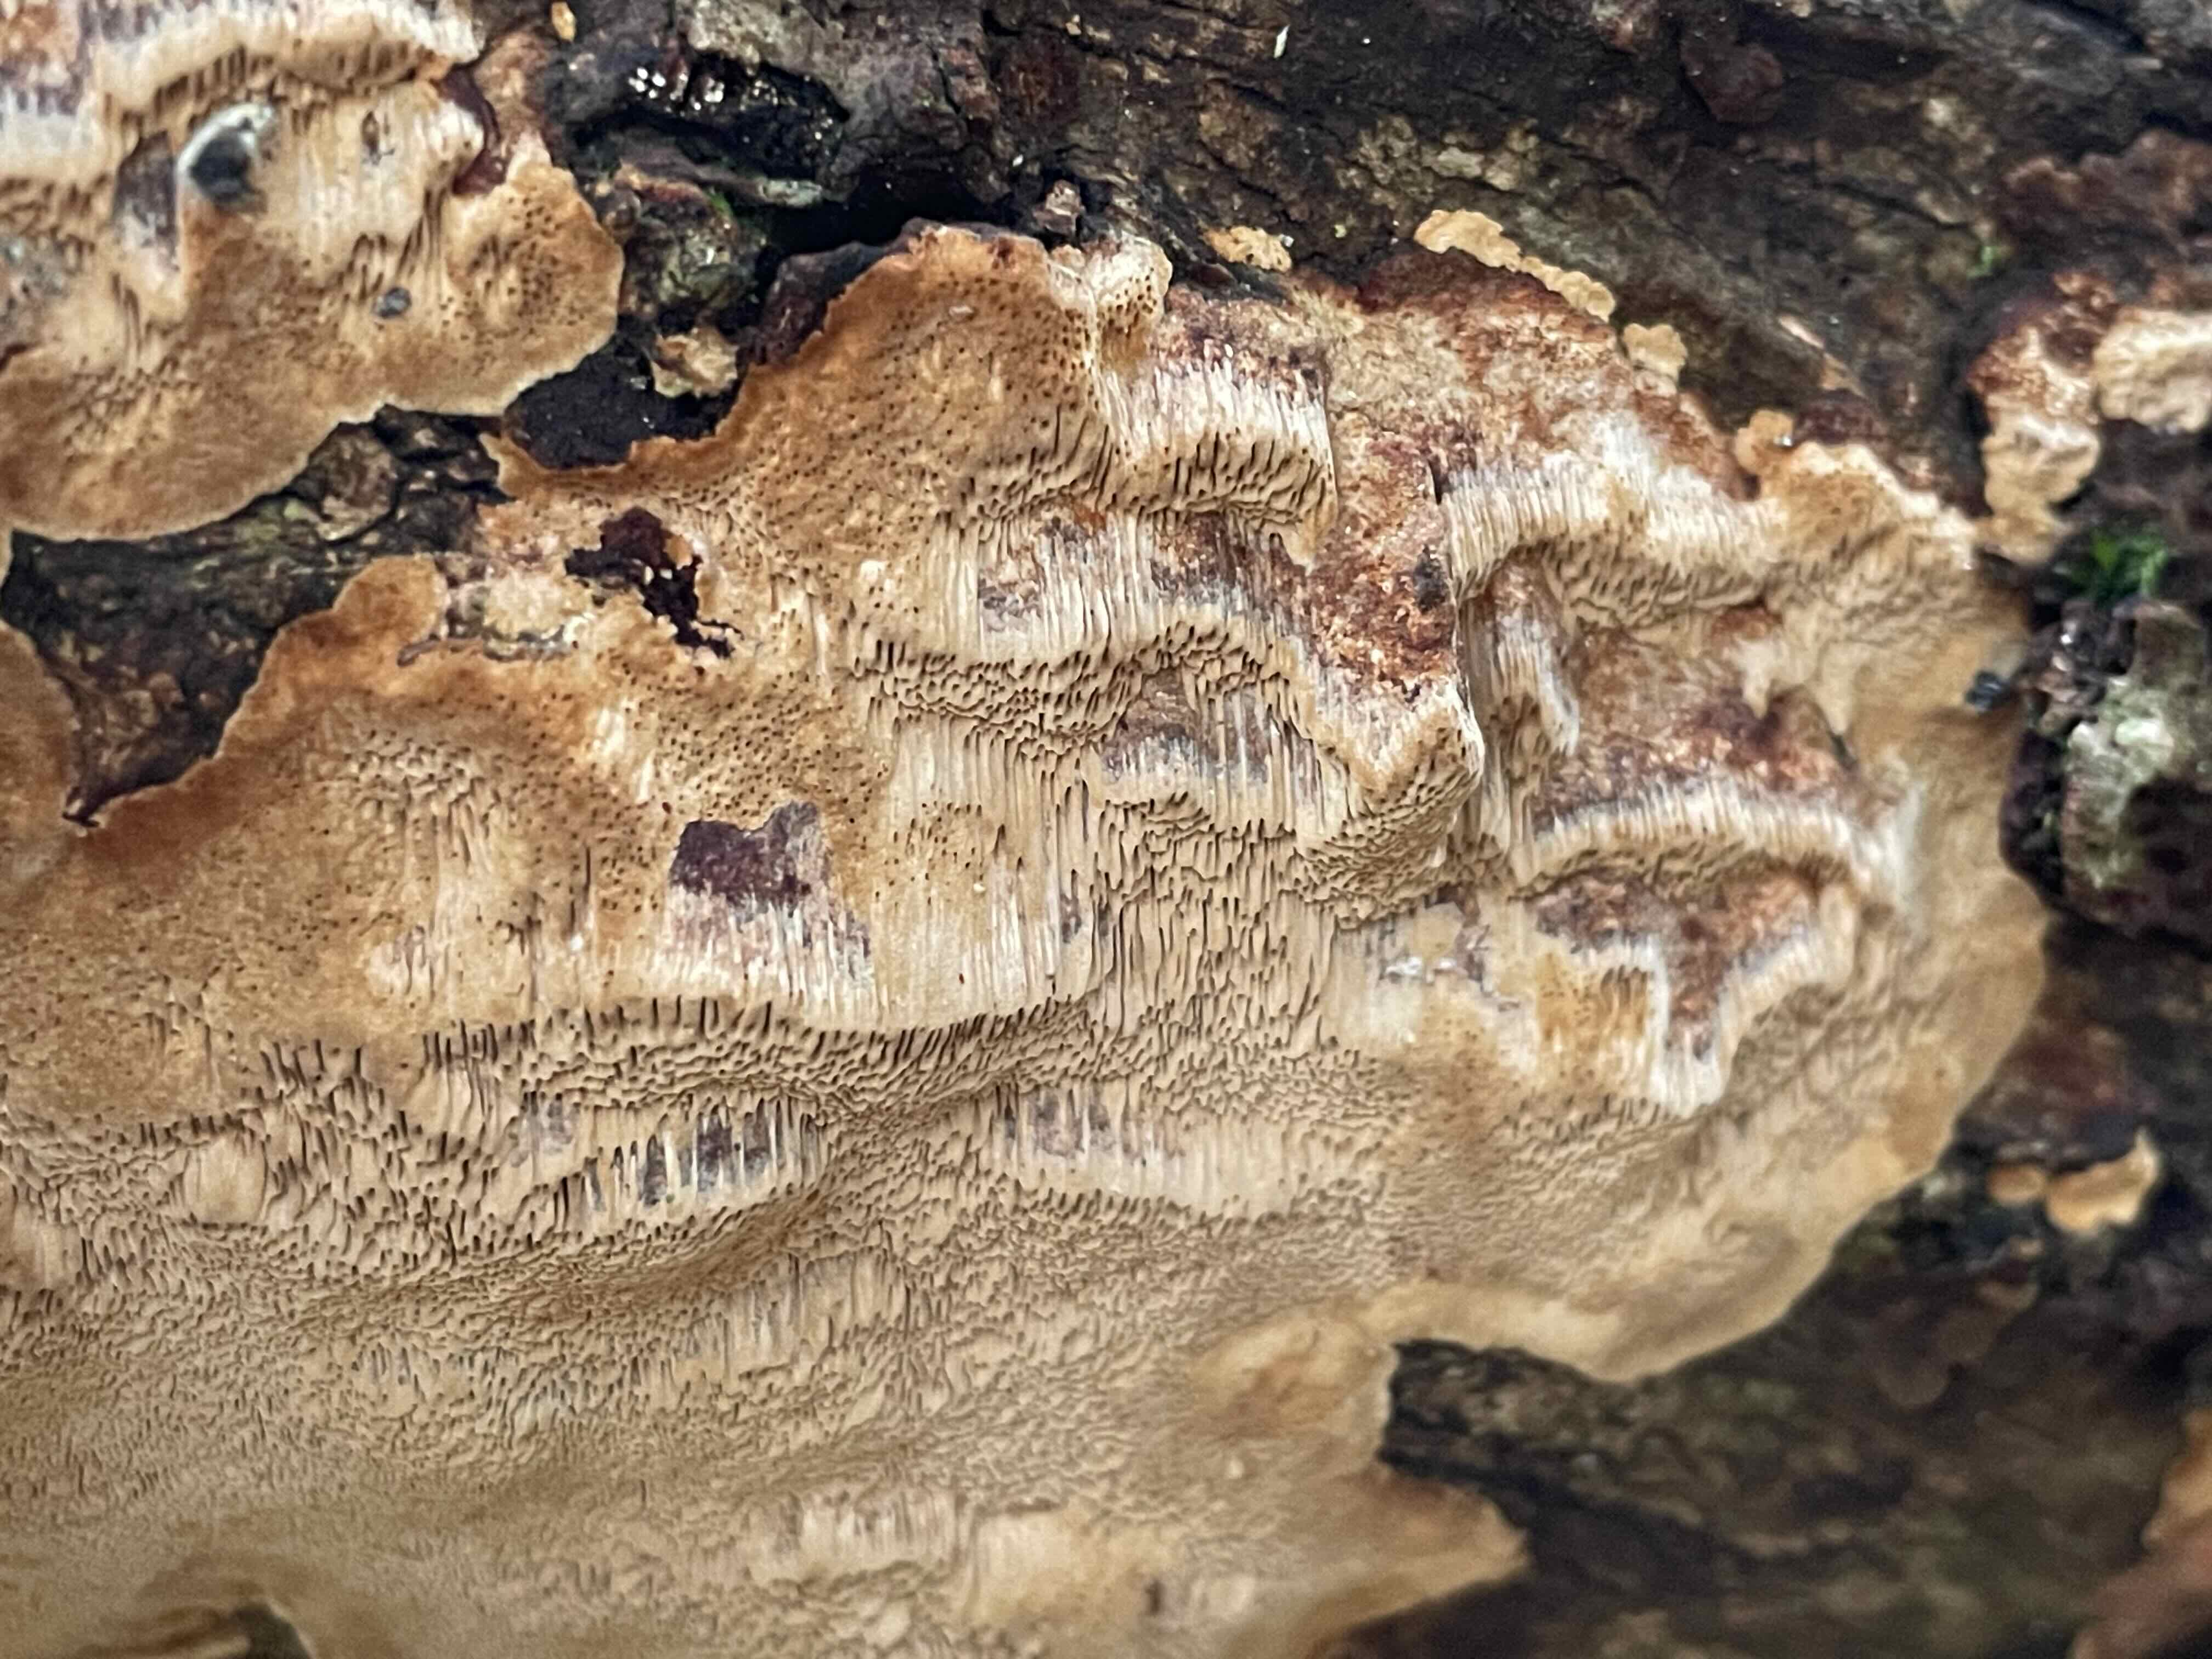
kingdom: Fungi
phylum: Basidiomycota
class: Agaricomycetes
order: Hymenochaetales
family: Hymenochaetaceae
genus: Fuscoporia
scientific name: Fuscoporia ferrea
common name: skorpe-ildporesvamp
